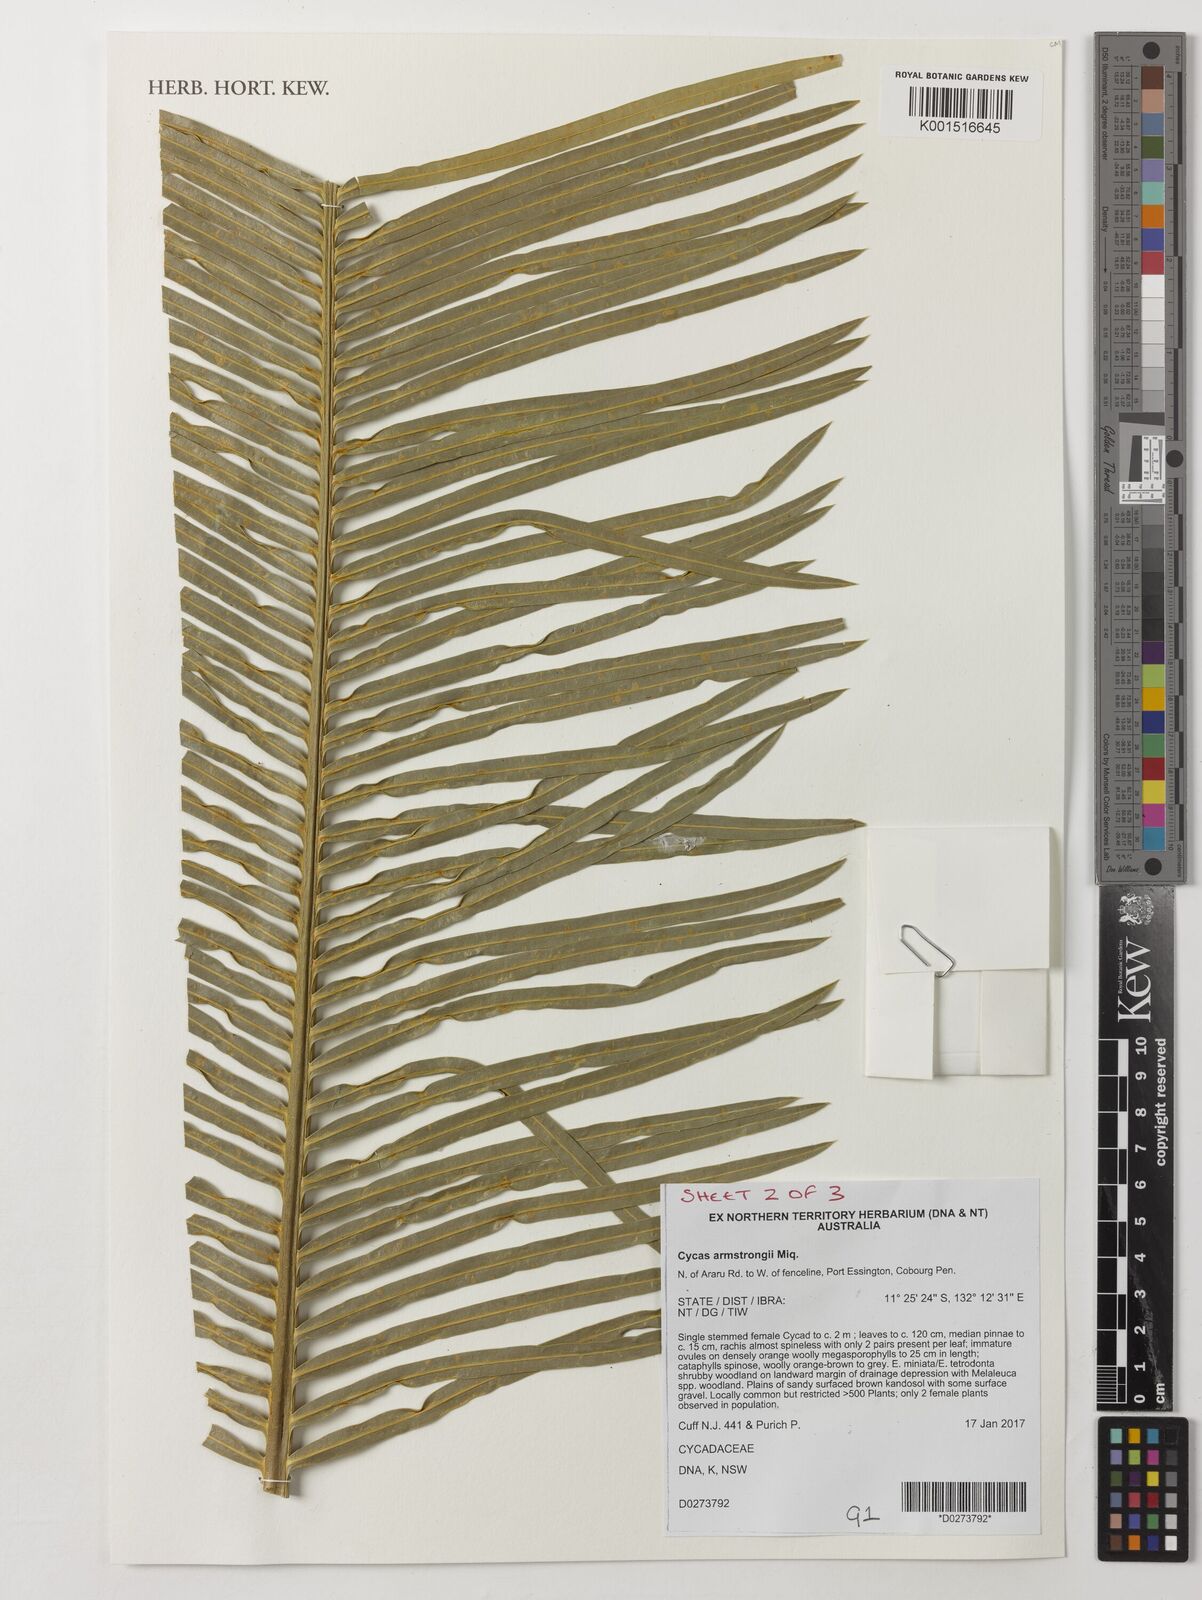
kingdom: Plantae
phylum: Tracheophyta
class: Cycadopsida
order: Cycadales
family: Cycadaceae
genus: Cycas
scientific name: Cycas armstrongii
